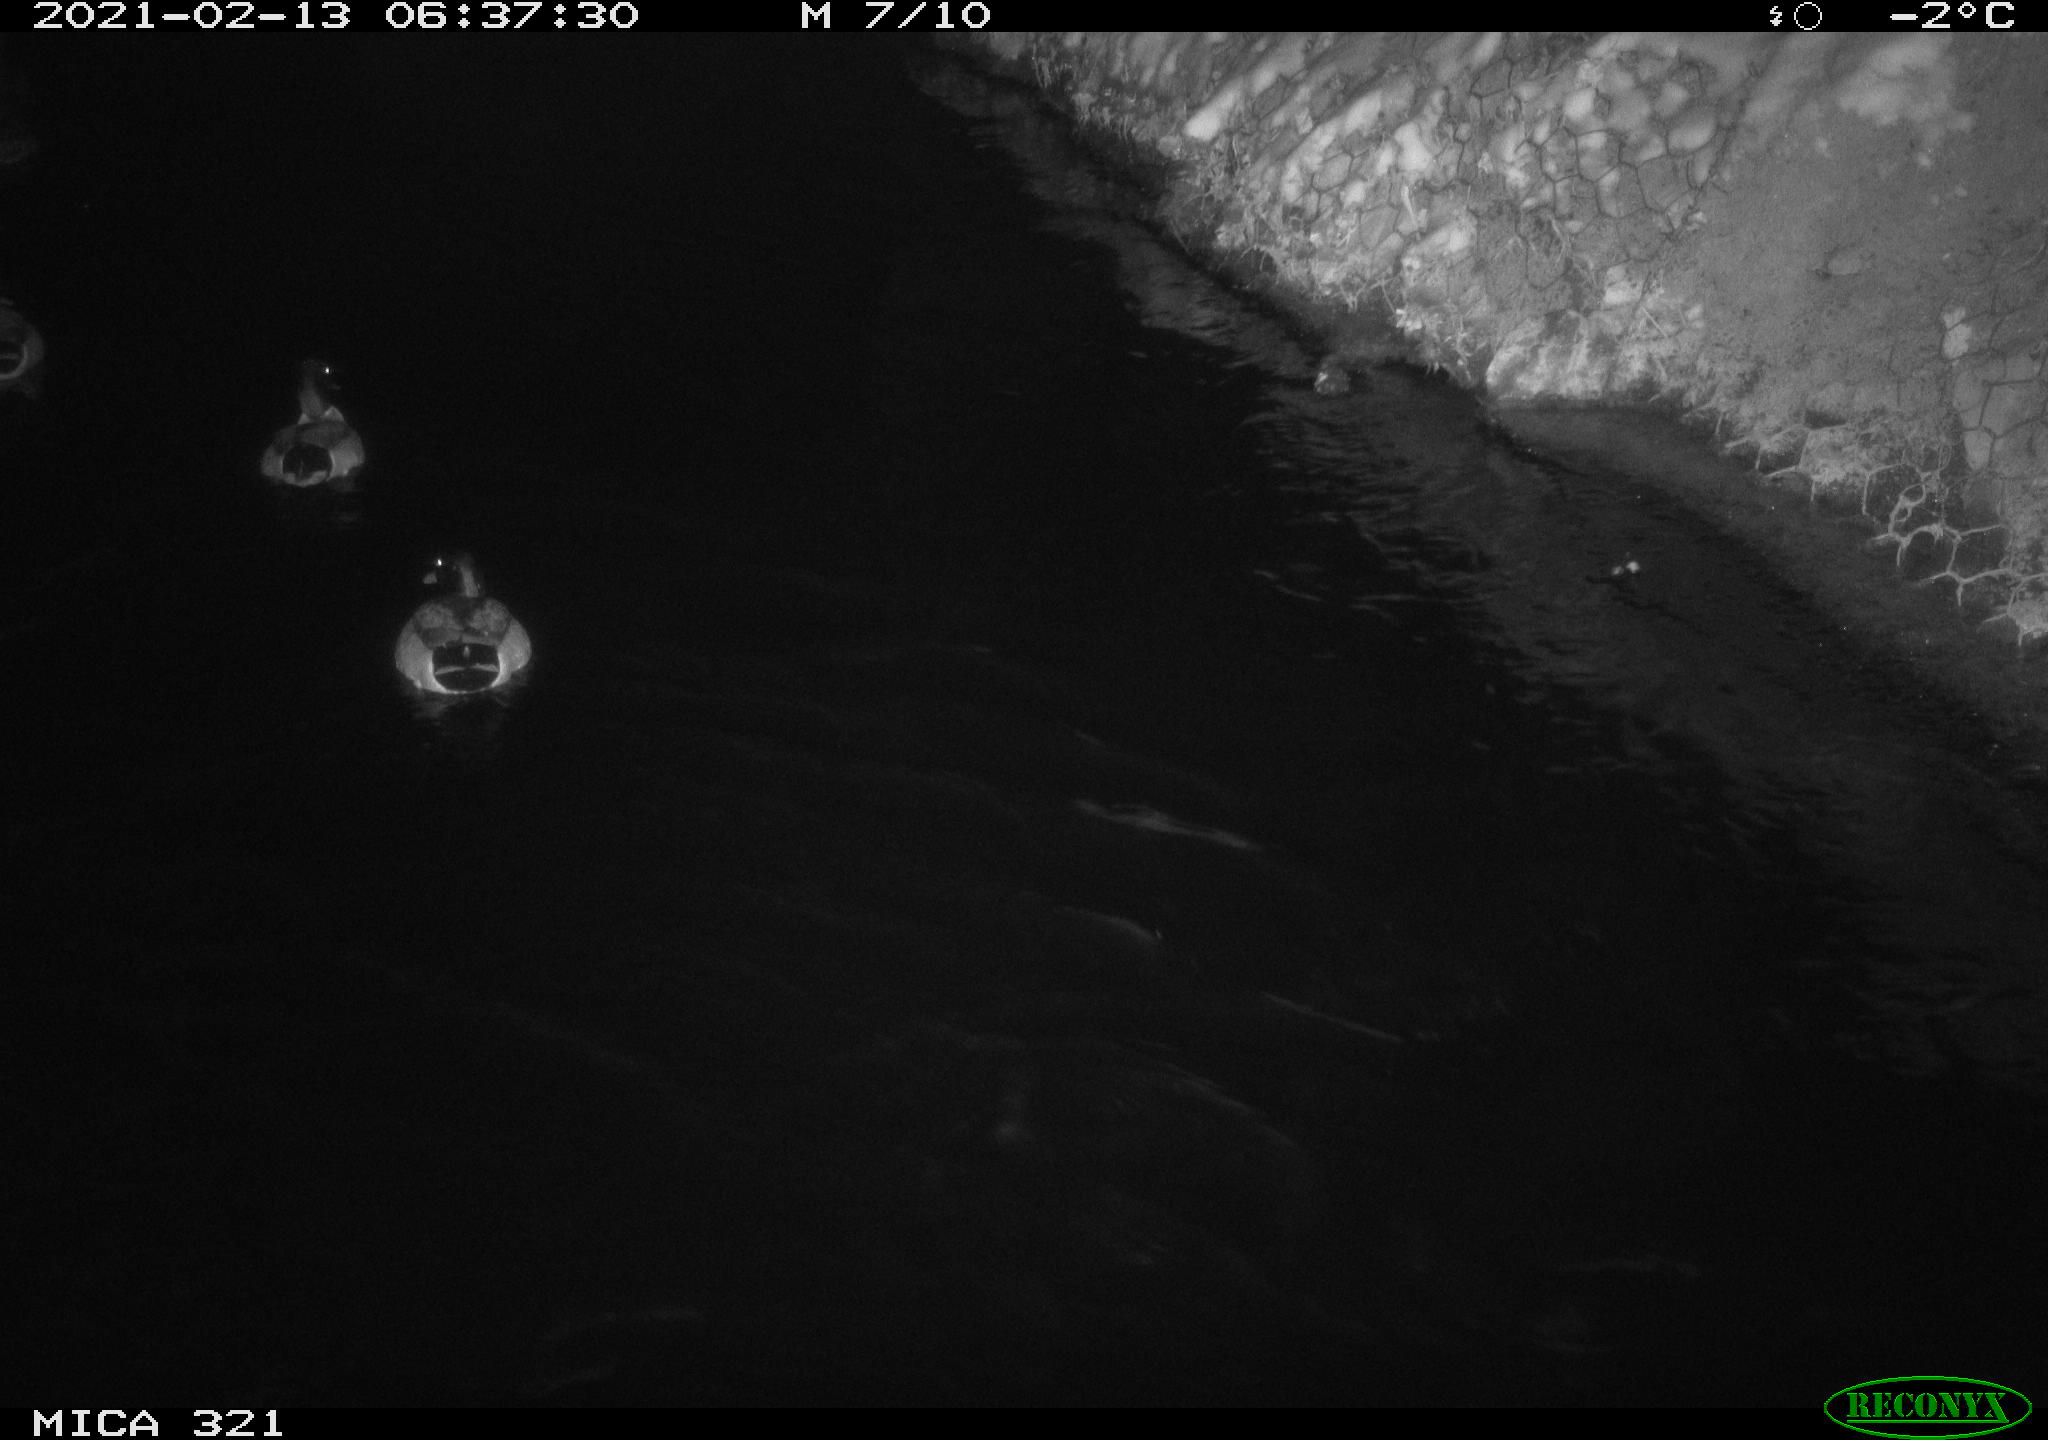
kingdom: Animalia
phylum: Chordata
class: Aves
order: Anseriformes
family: Anatidae
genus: Anas
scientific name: Anas platyrhynchos
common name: Mallard
